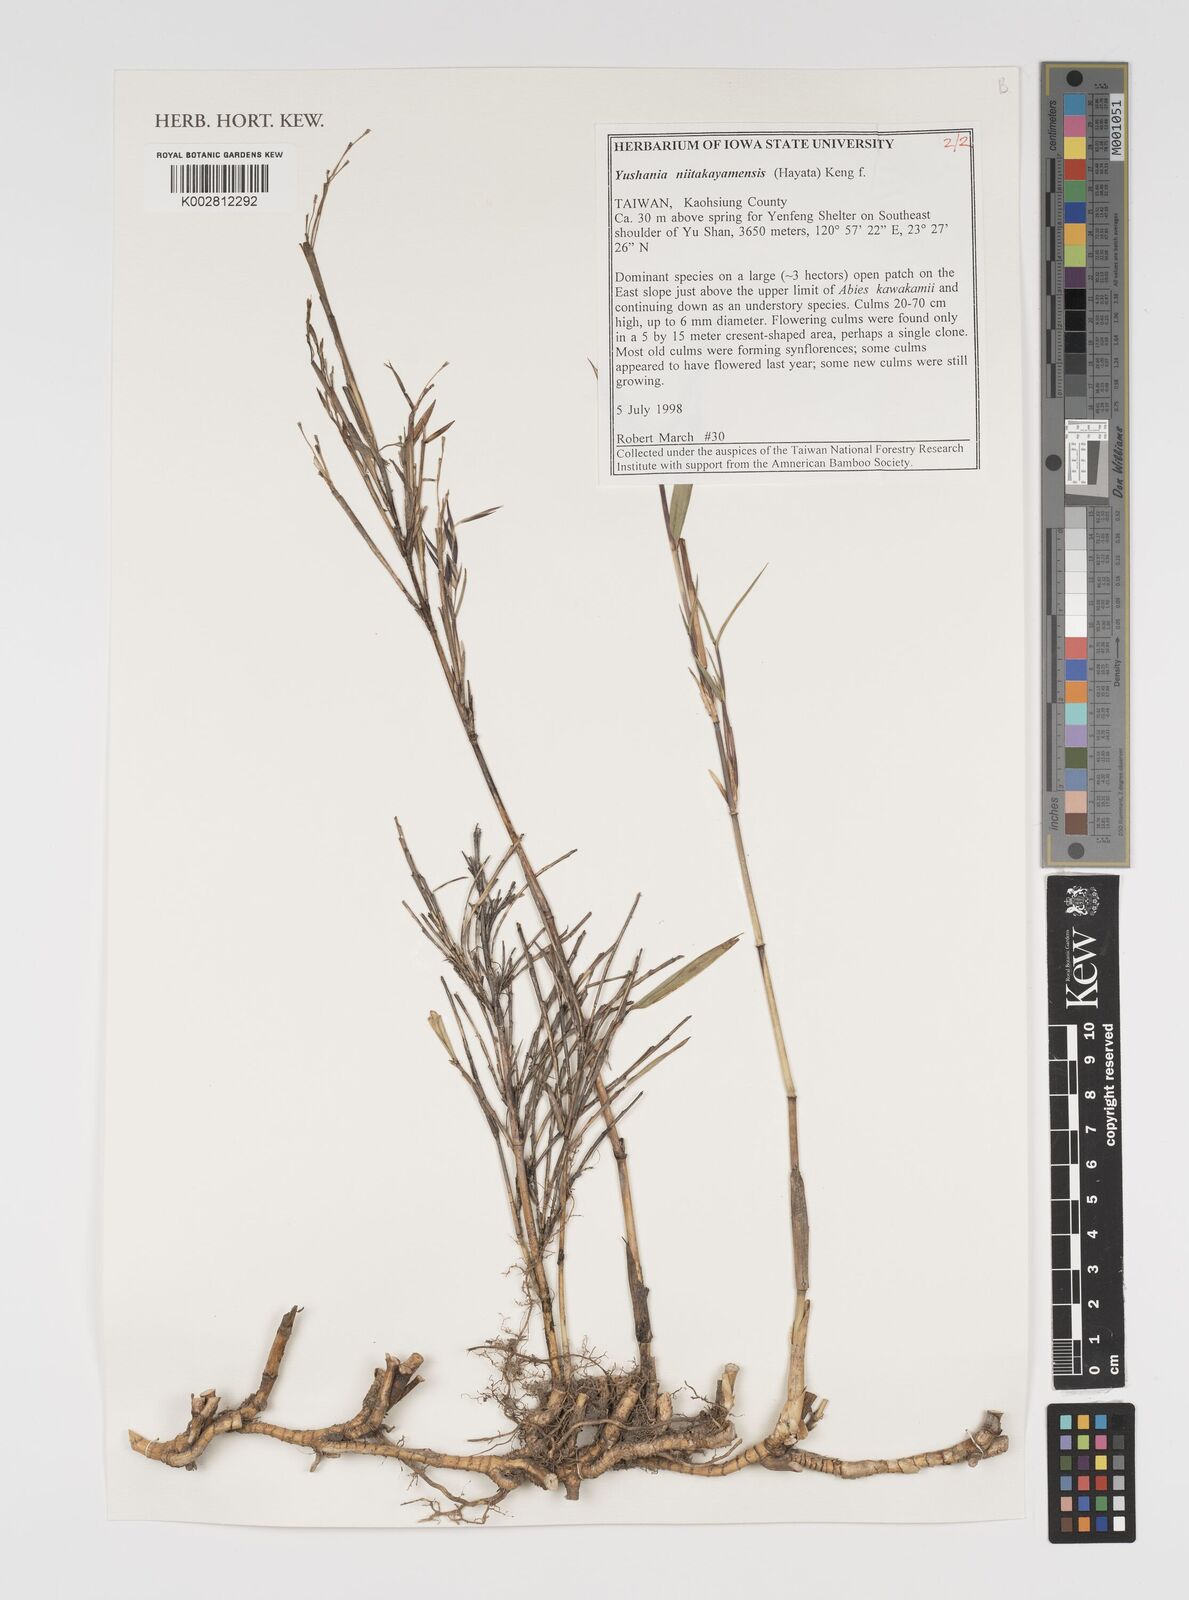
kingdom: Plantae
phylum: Tracheophyta
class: Liliopsida
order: Poales
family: Poaceae
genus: Yushania
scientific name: Yushania niitakayamensis
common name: Yushan cane
